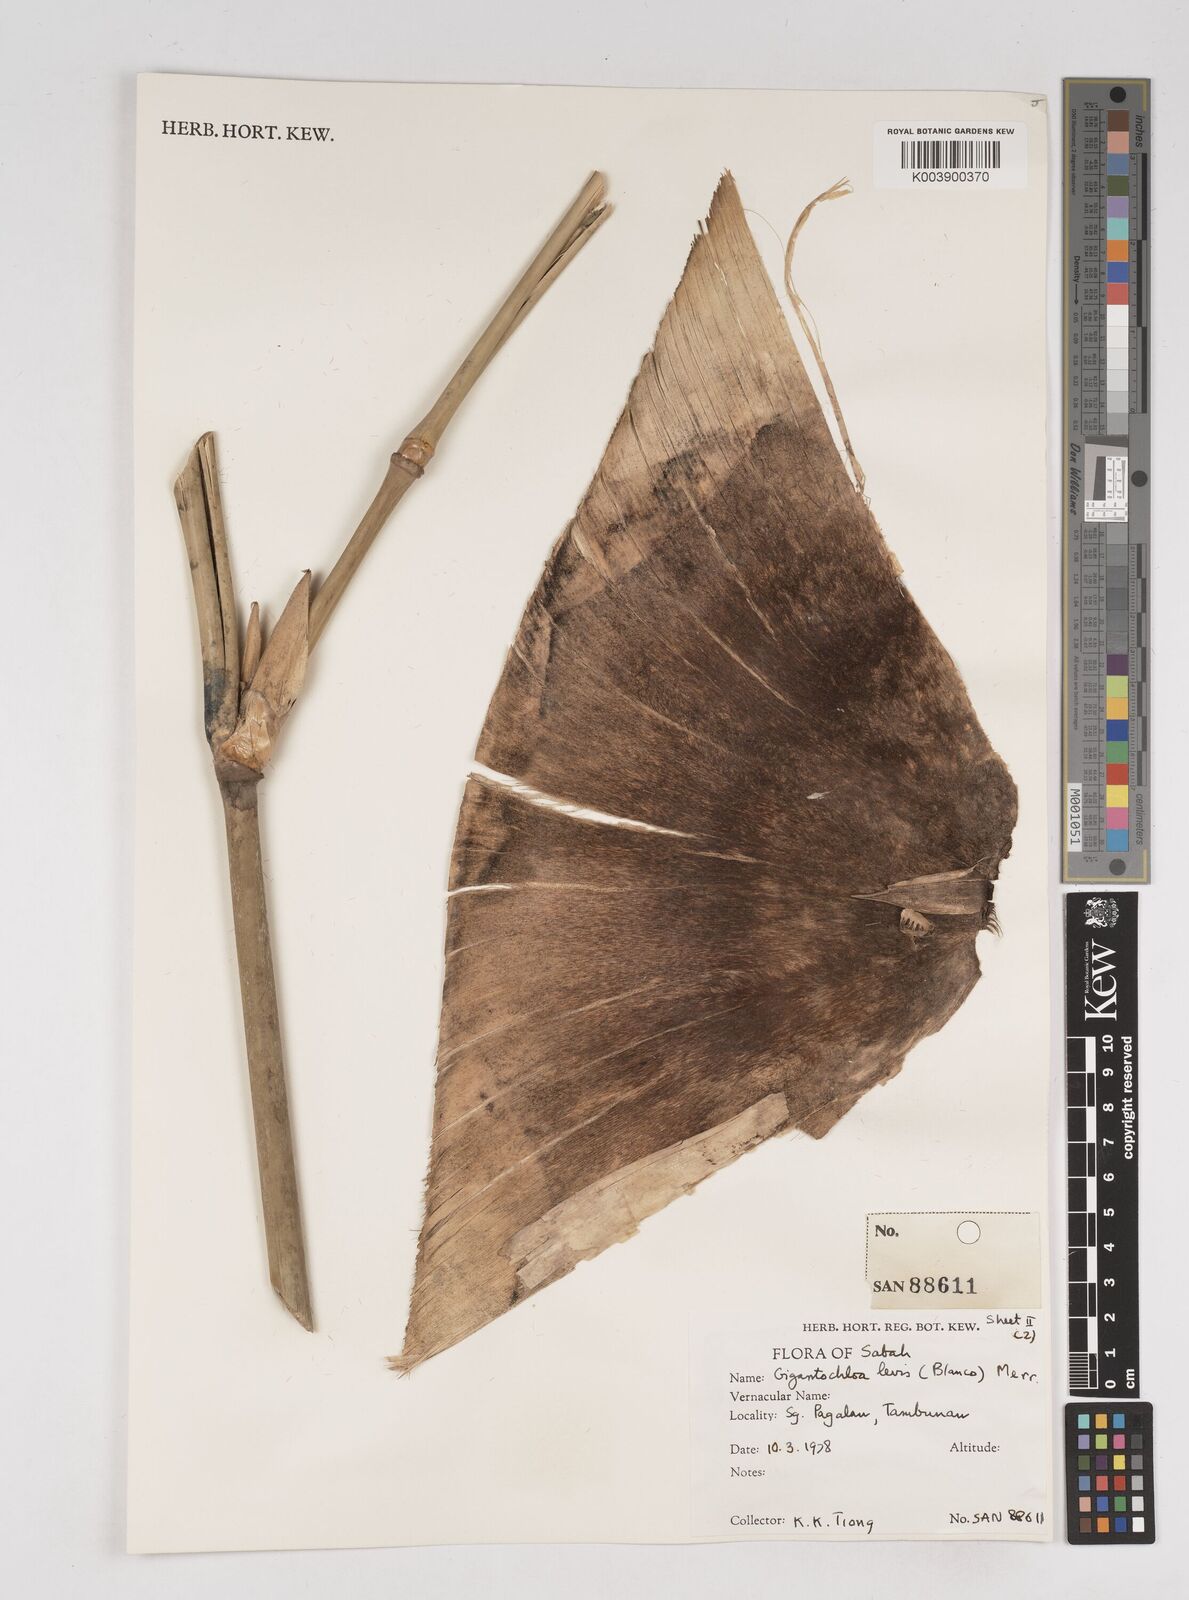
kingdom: Plantae
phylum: Tracheophyta
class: Liliopsida
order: Poales
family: Poaceae
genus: Gigantochloa
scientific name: Gigantochloa
